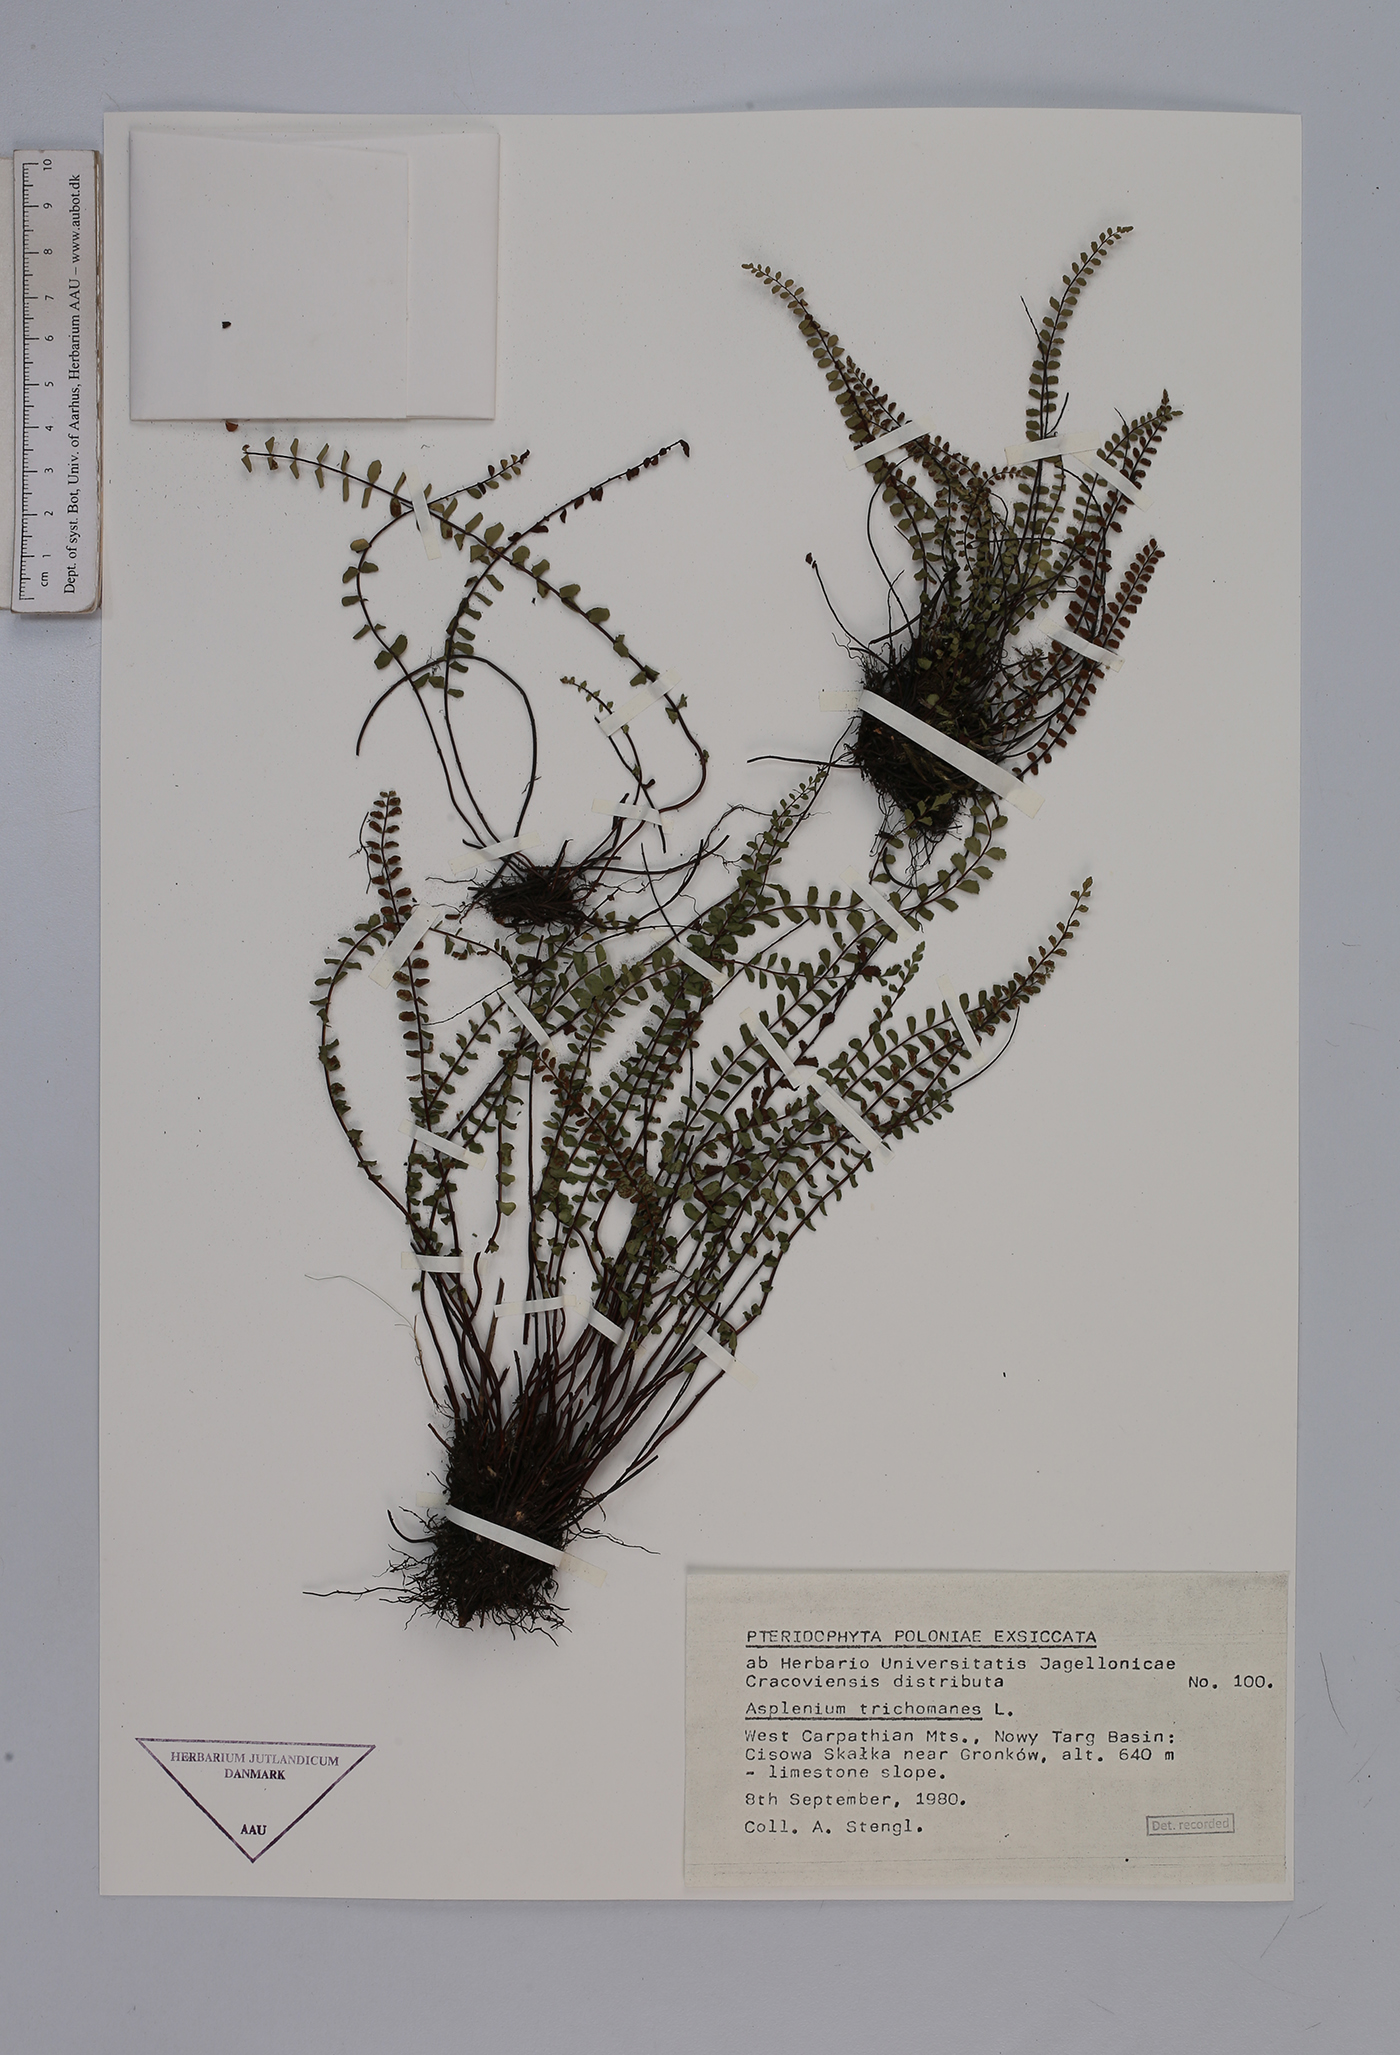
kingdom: Plantae
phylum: Tracheophyta
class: Polypodiopsida
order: Polypodiales
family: Aspleniaceae
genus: Asplenium
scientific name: Asplenium trichomanes
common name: Maidenhair spleenwort
